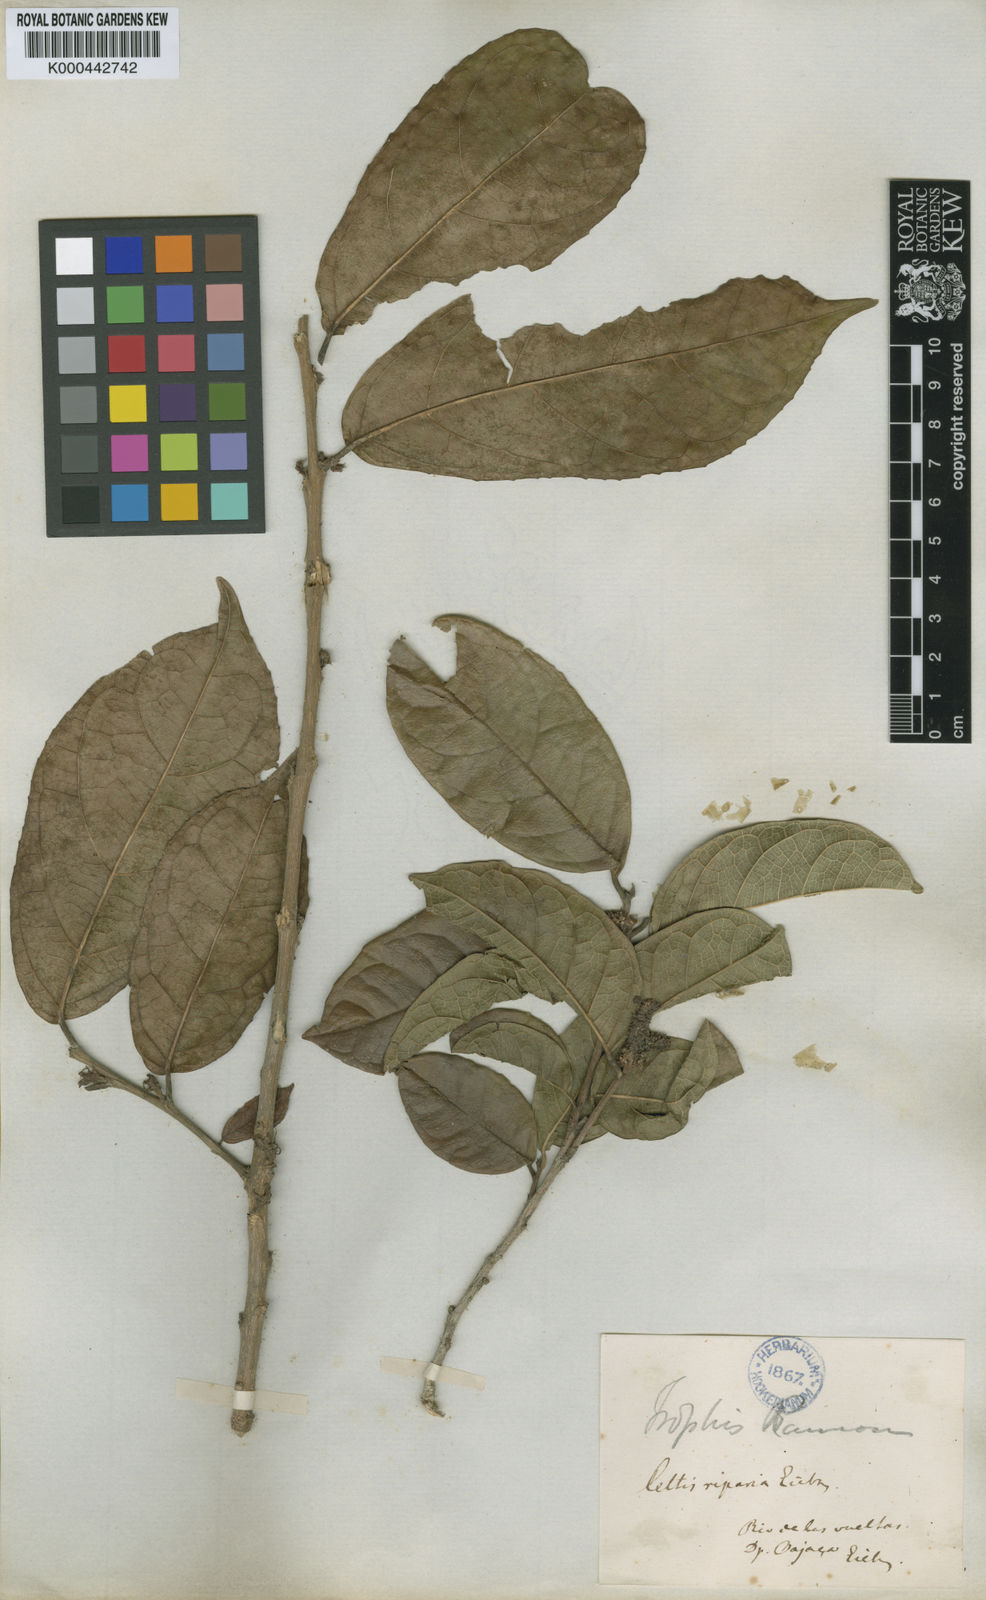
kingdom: Plantae
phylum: Tracheophyta
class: Magnoliopsida
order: Rosales
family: Moraceae
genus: Trophis
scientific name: Trophis racemosa
